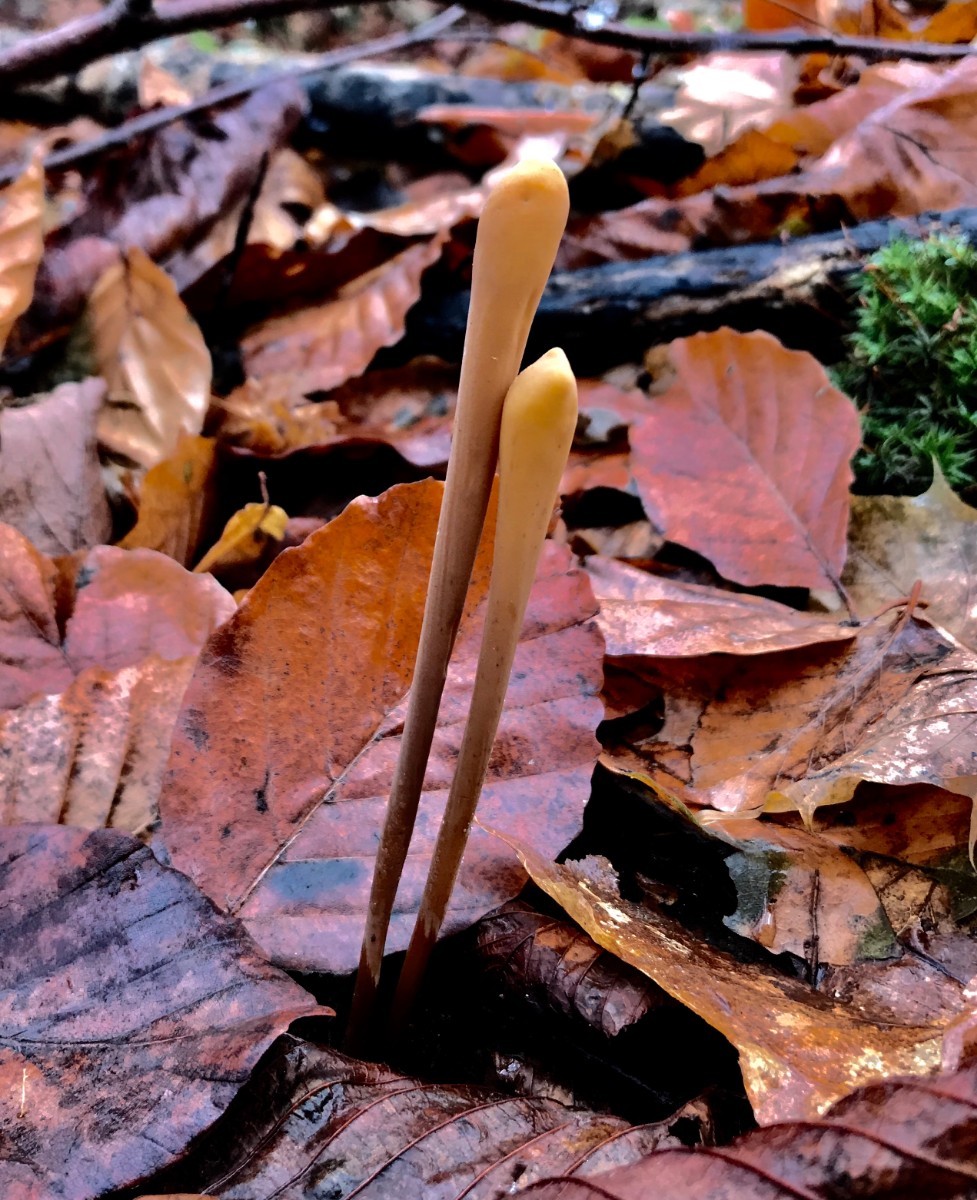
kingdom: Fungi
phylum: Basidiomycota
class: Agaricomycetes
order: Agaricales
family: Typhulaceae
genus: Typhula
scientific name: Typhula fistulosa
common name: pibet rørkølle
